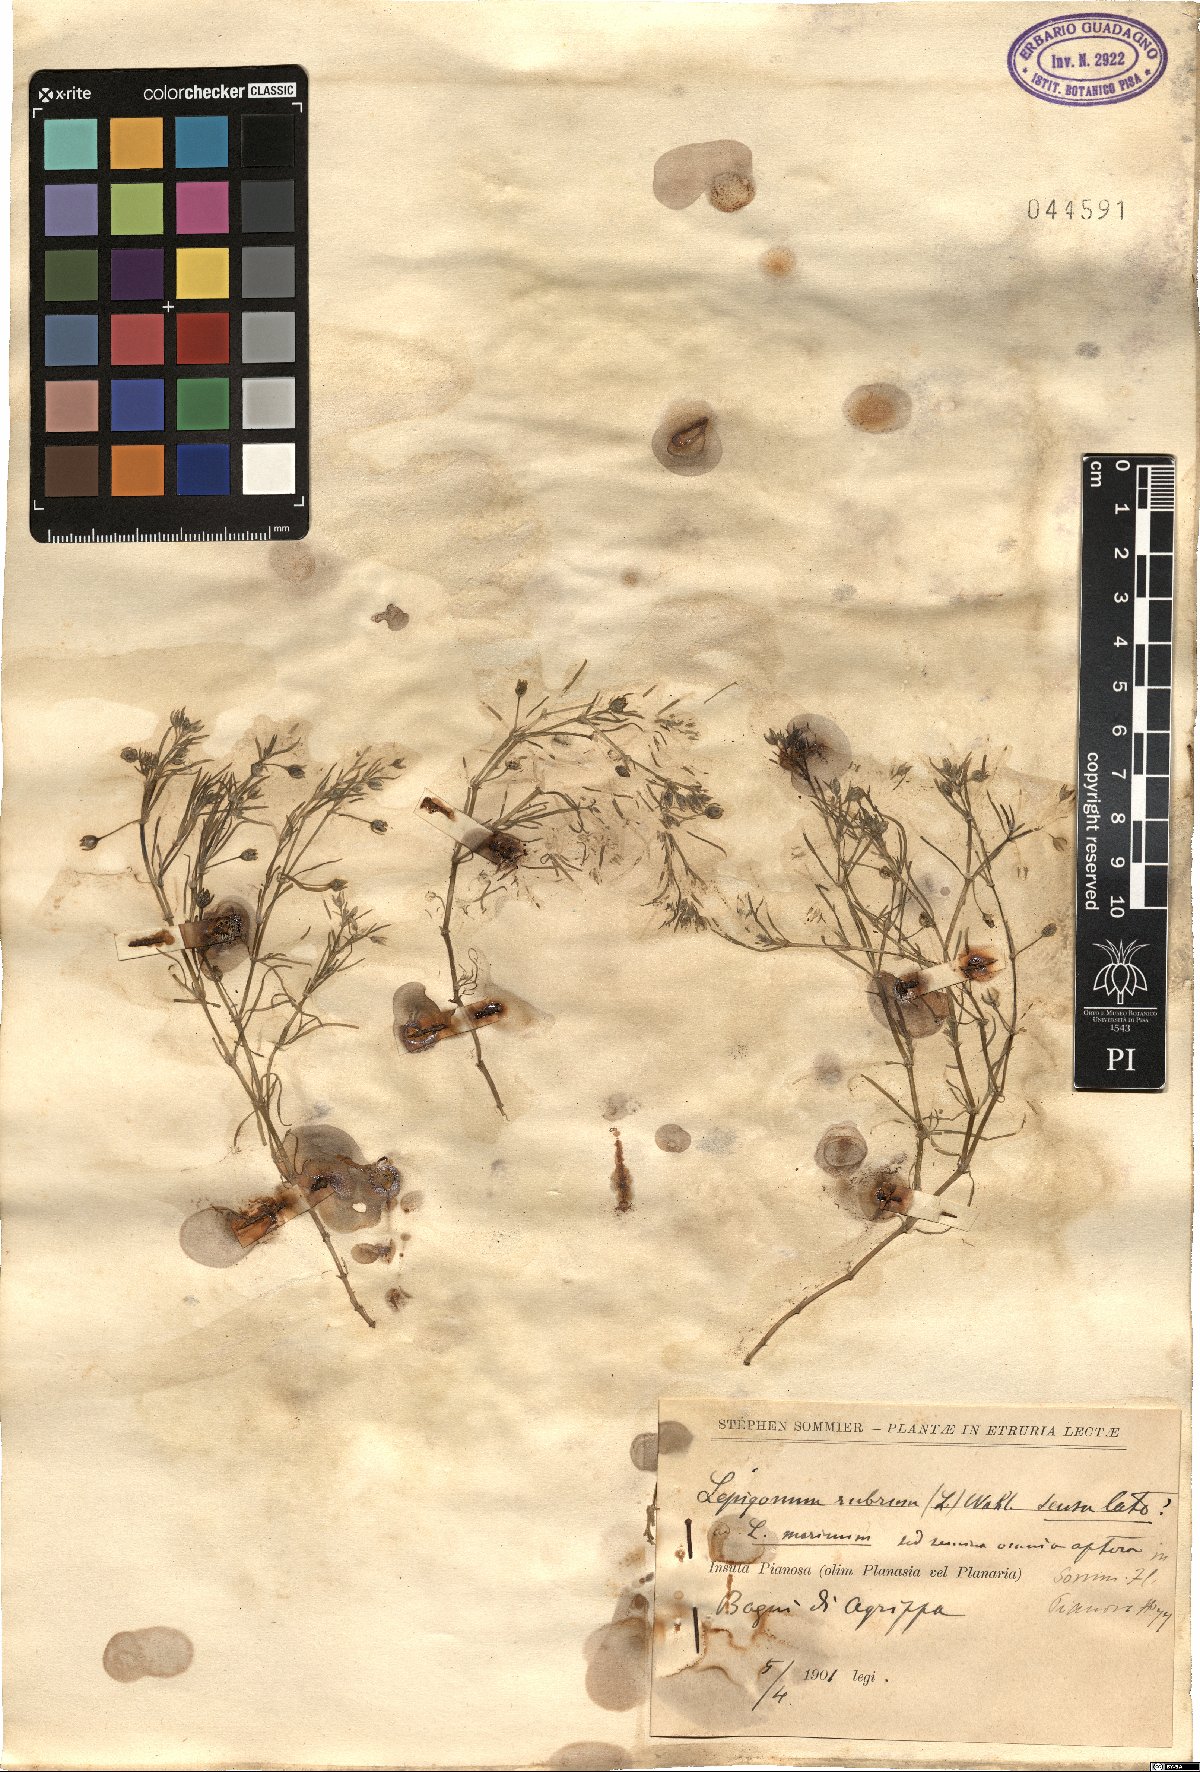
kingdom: Plantae
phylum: Tracheophyta
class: Magnoliopsida
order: Caryophyllales
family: Caryophyllaceae
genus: Spergularia
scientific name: Spergularia rubra
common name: Red sand-spurrey
